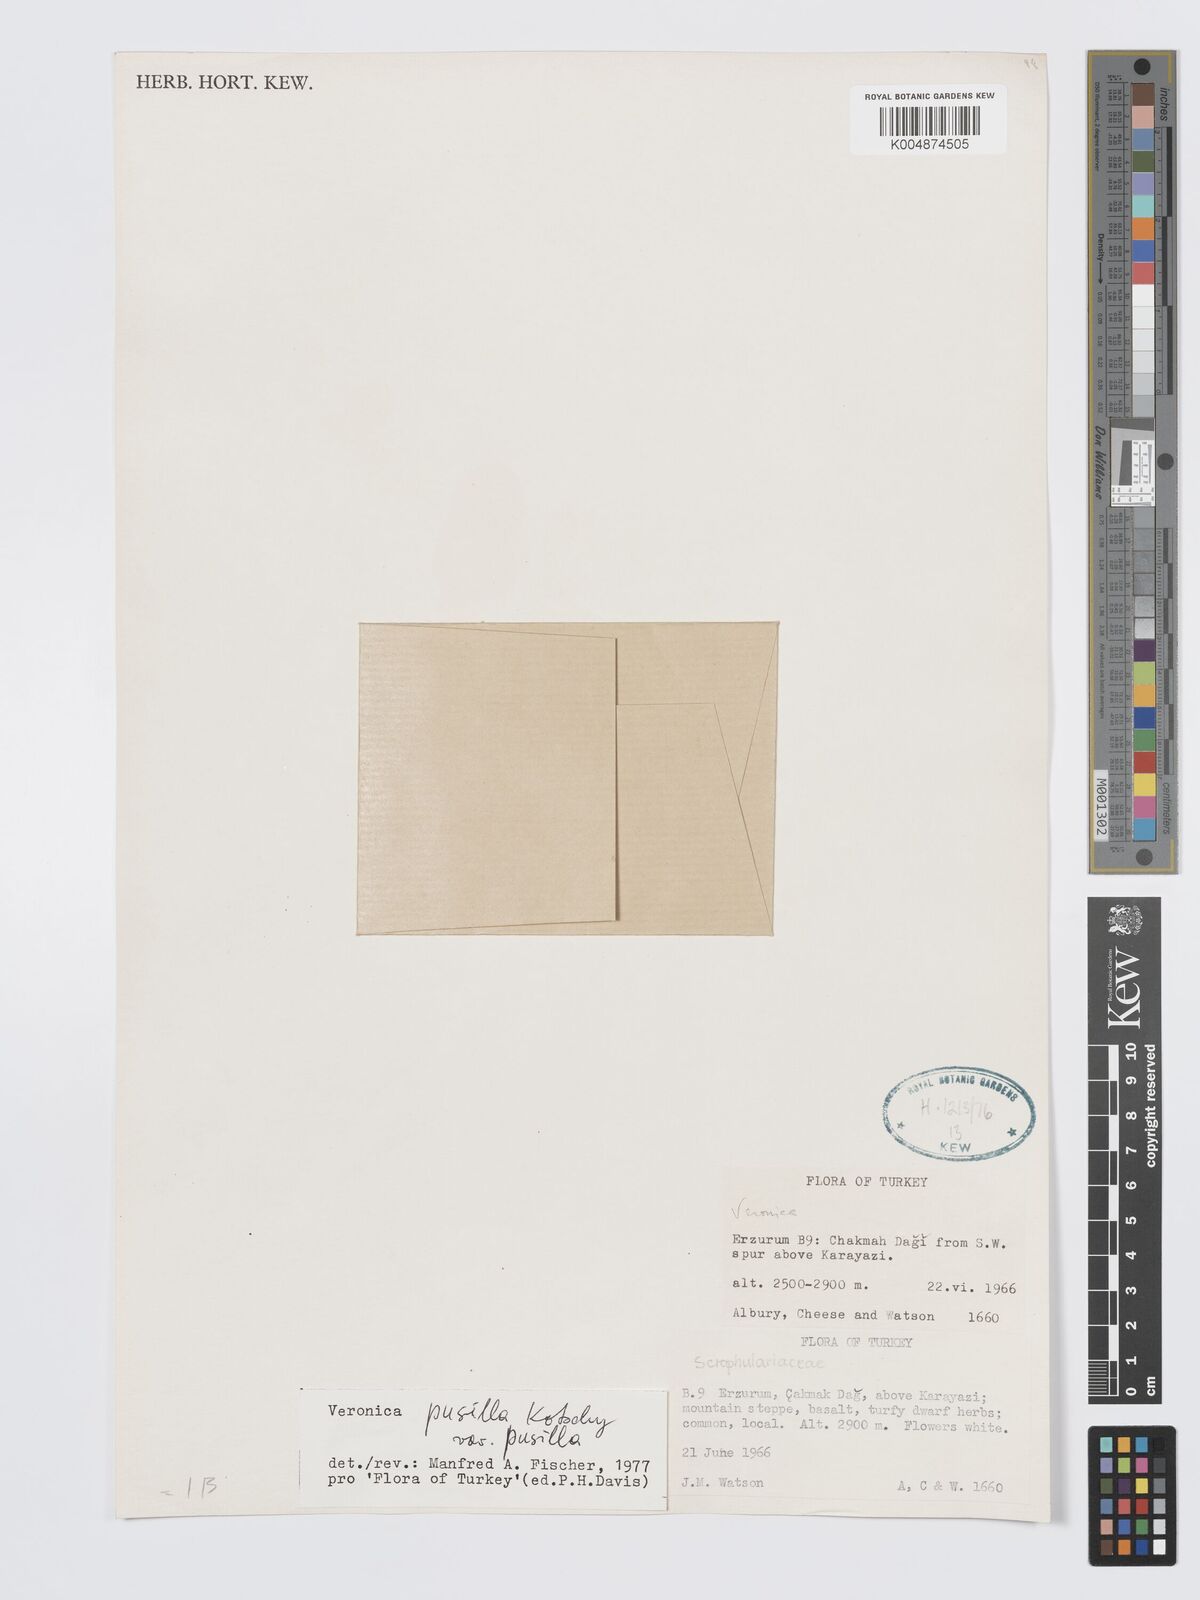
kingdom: Plantae
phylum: Tracheophyta
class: Magnoliopsida
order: Lamiales
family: Plantaginaceae
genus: Veronica
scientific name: Veronica pusilla
